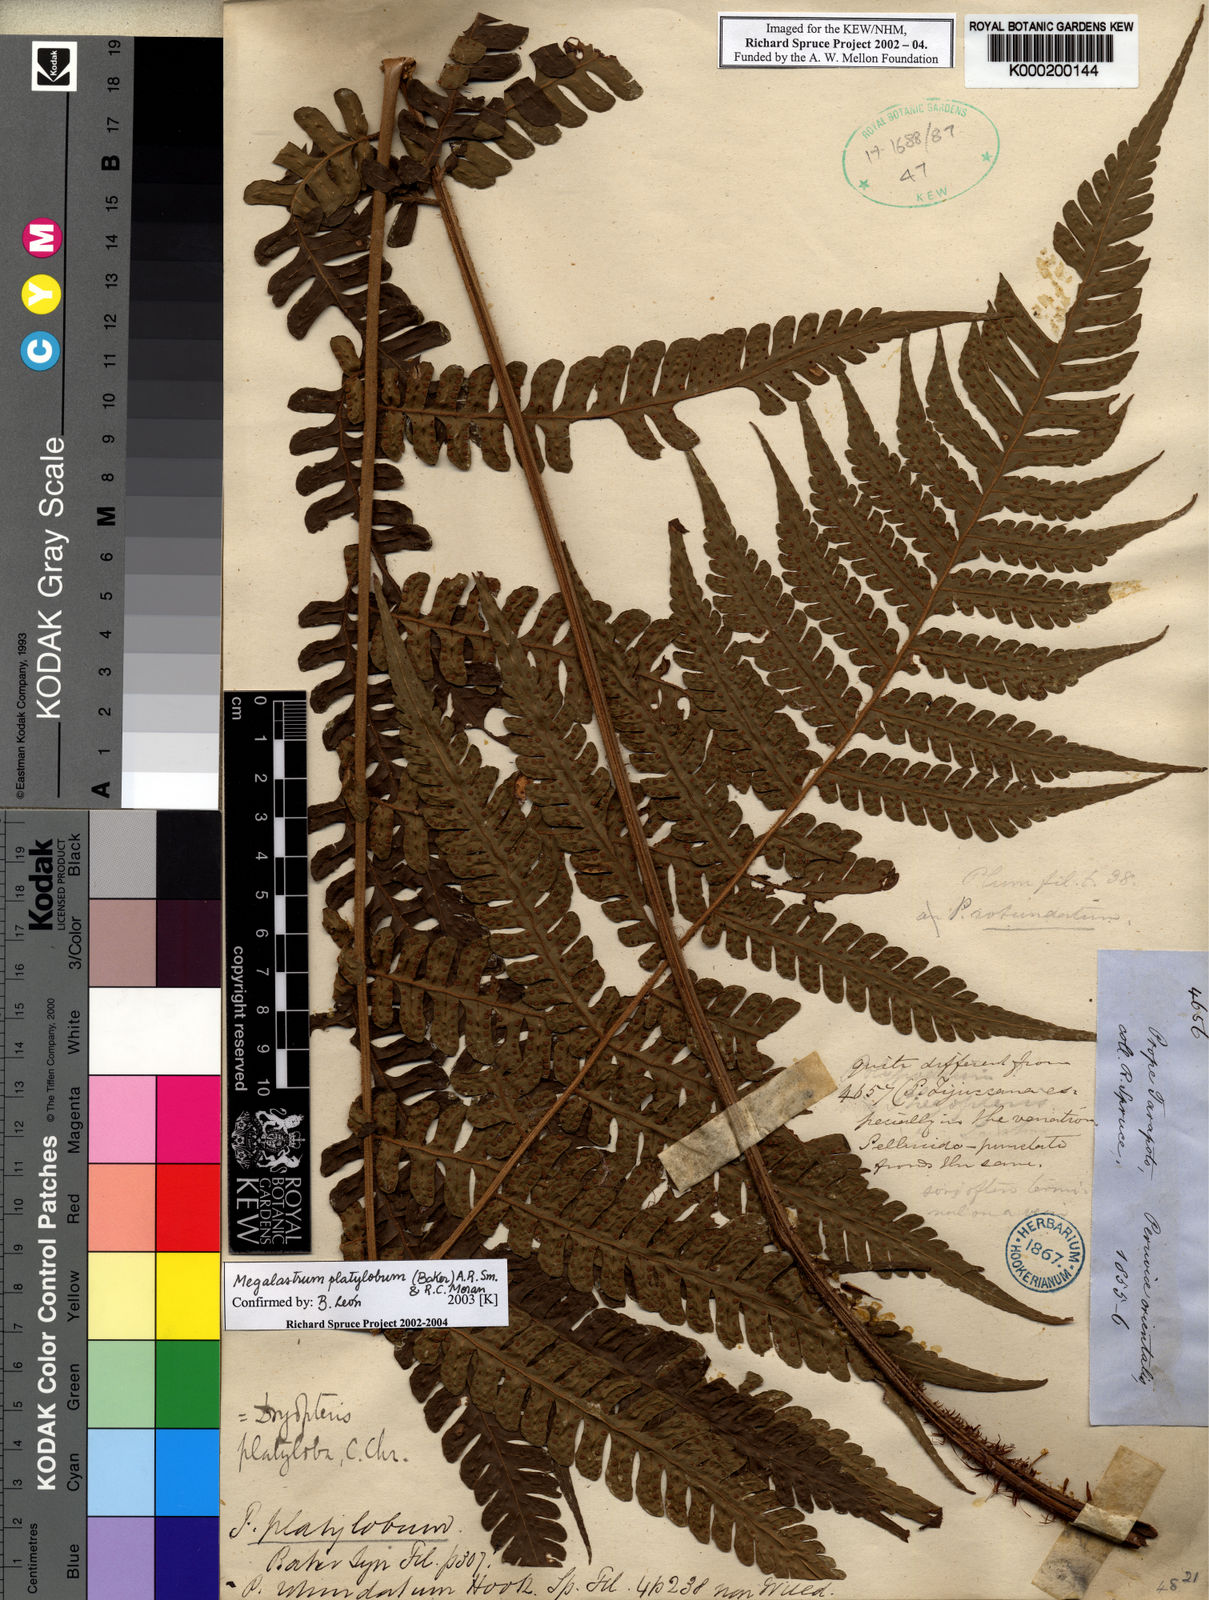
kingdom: Plantae
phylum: Tracheophyta
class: Polypodiopsida
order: Polypodiales
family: Dryopteridaceae
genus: Megalastrum
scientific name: Megalastrum platylobum
